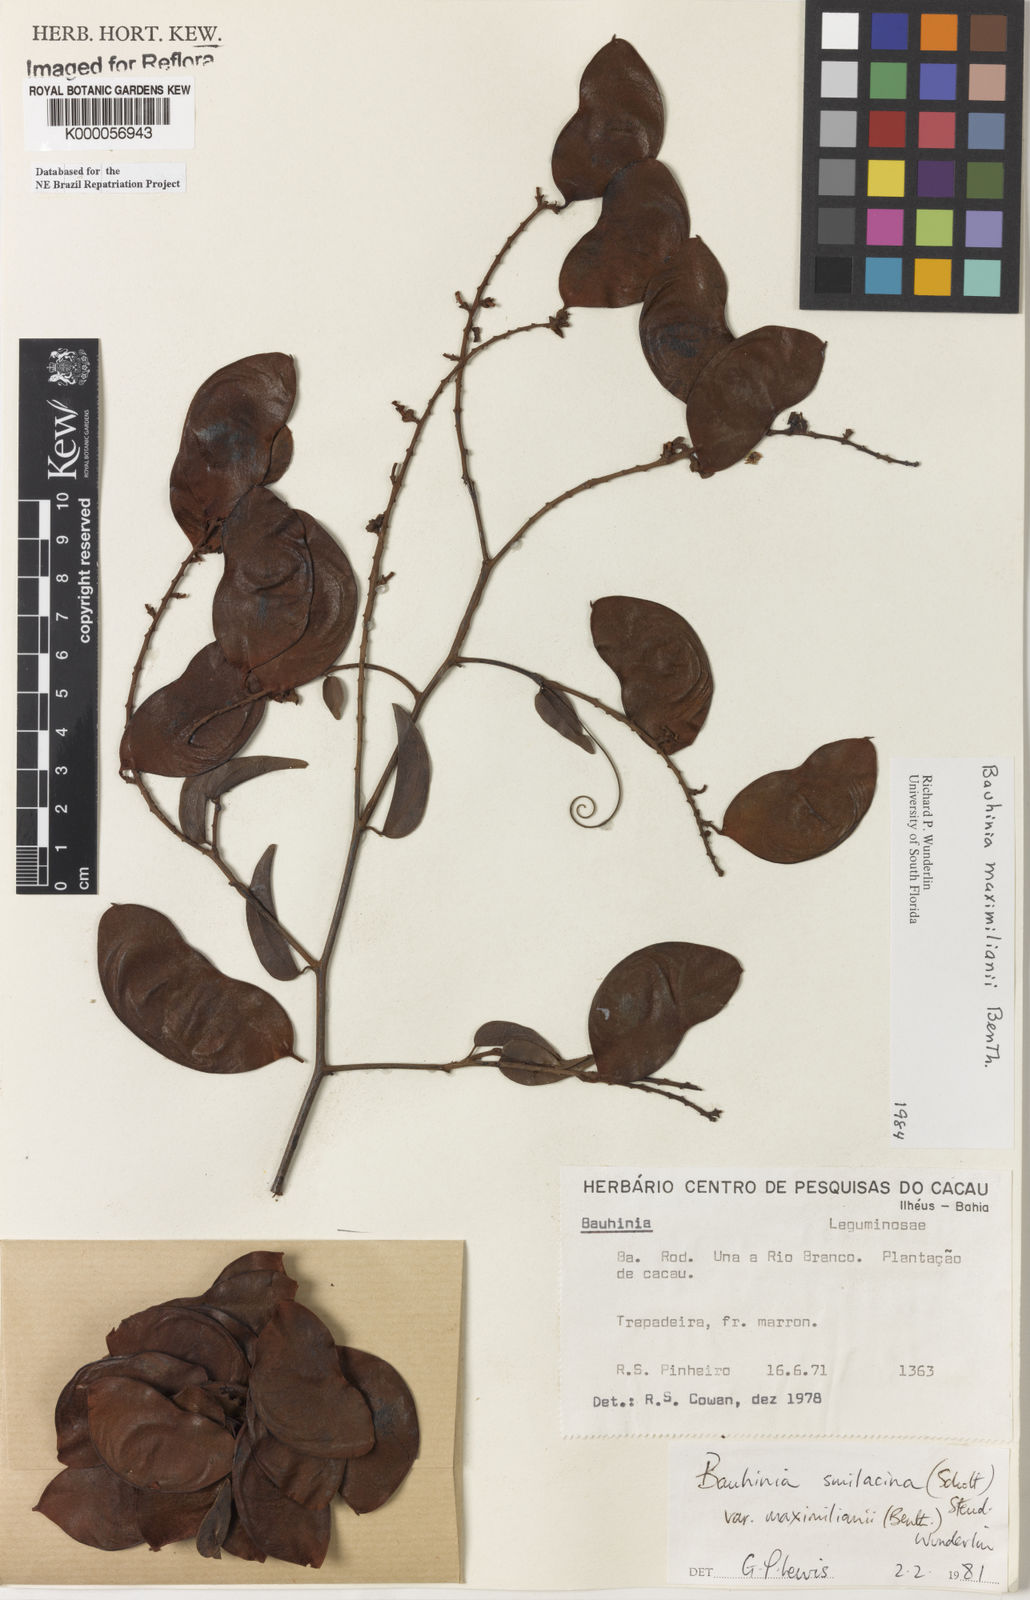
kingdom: Plantae
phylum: Tracheophyta
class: Magnoliopsida
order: Fabales
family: Fabaceae
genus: Schnella
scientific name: Schnella maximiliani
